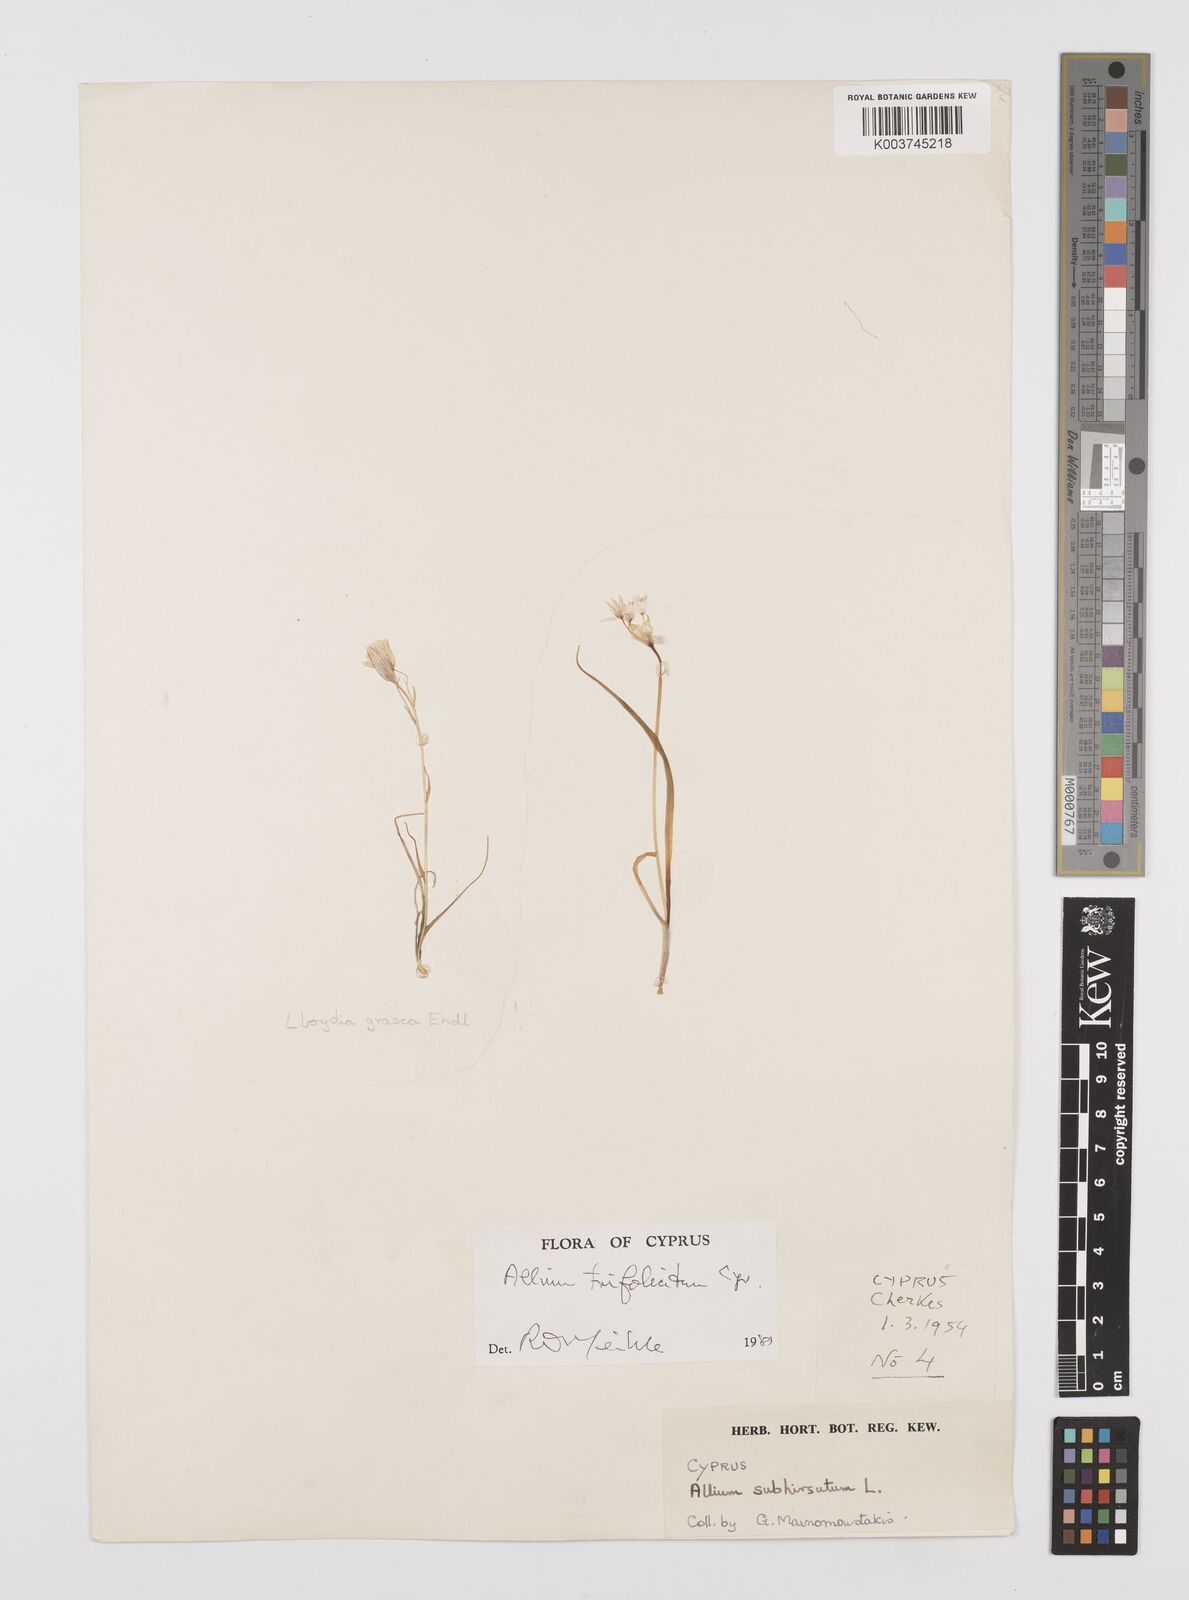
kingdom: Plantae
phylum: Tracheophyta
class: Liliopsida
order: Asparagales
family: Amaryllidaceae
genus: Allium
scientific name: Allium trifoliatum
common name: Pink garlic
